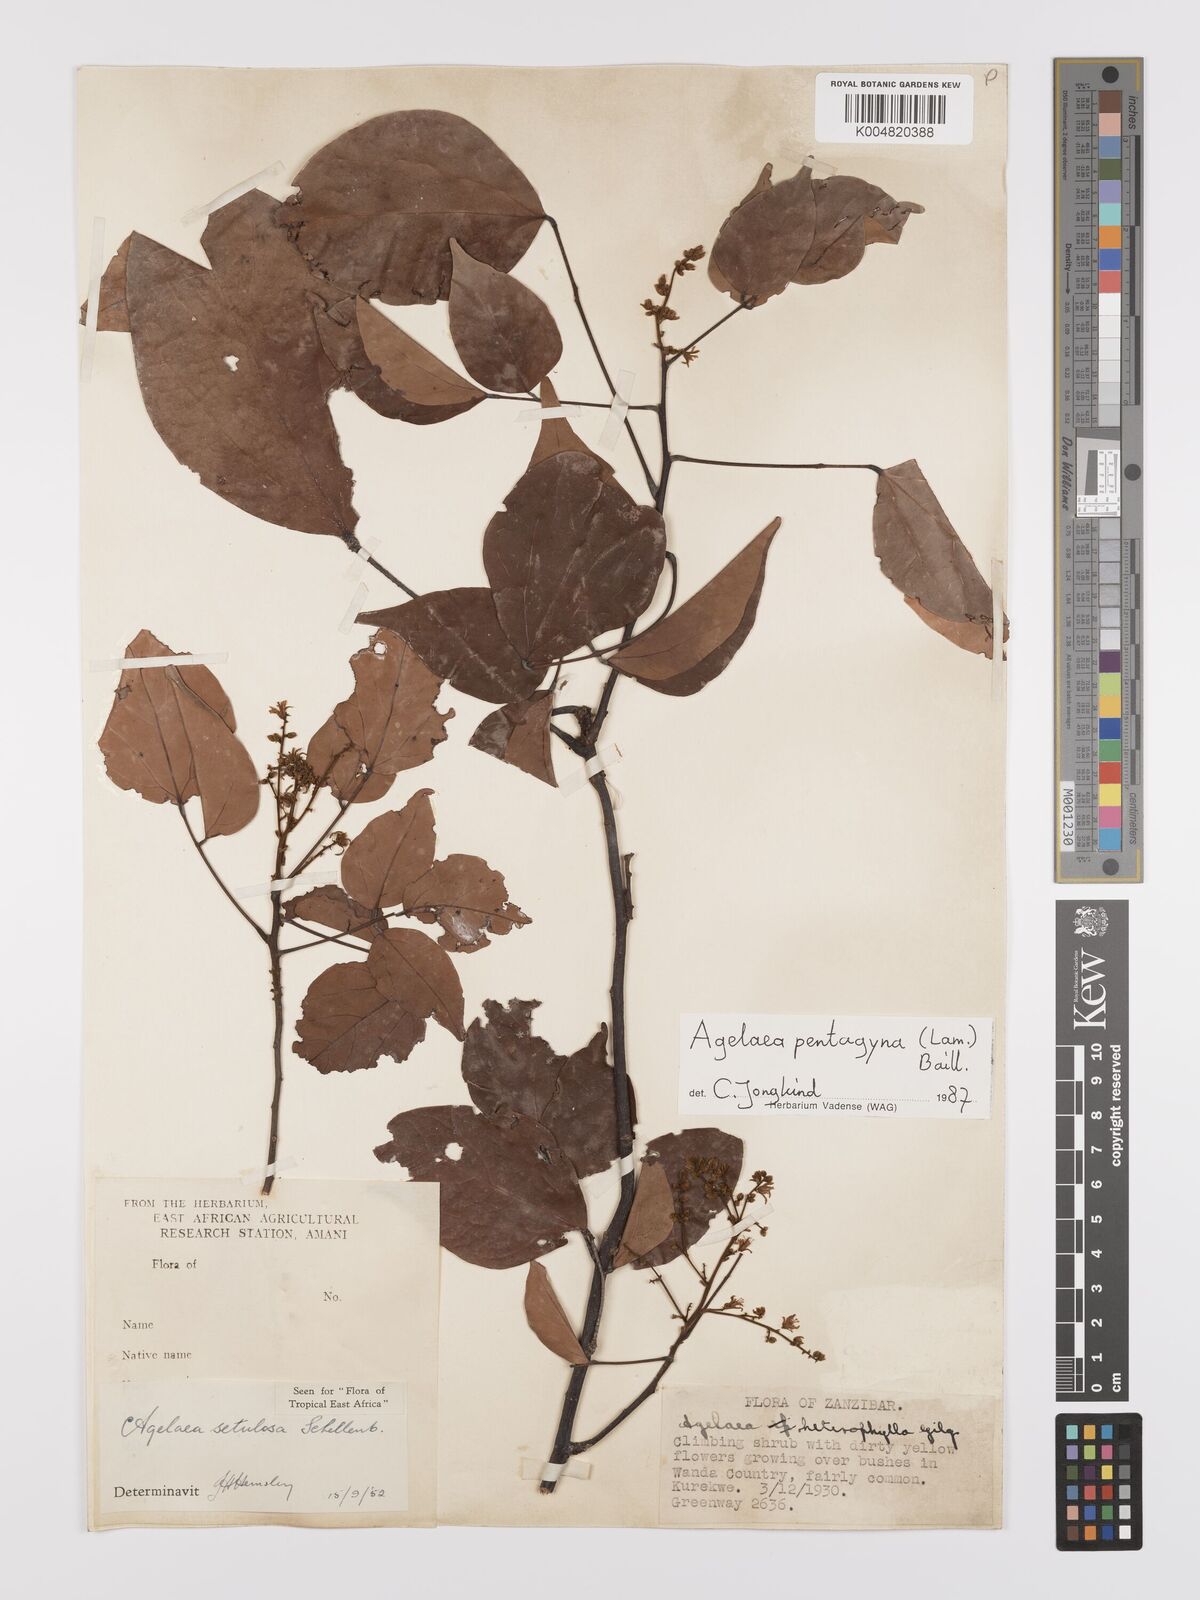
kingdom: Plantae
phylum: Tracheophyta
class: Magnoliopsida
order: Oxalidales
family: Connaraceae
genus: Agelaea
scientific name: Agelaea pentagyna
